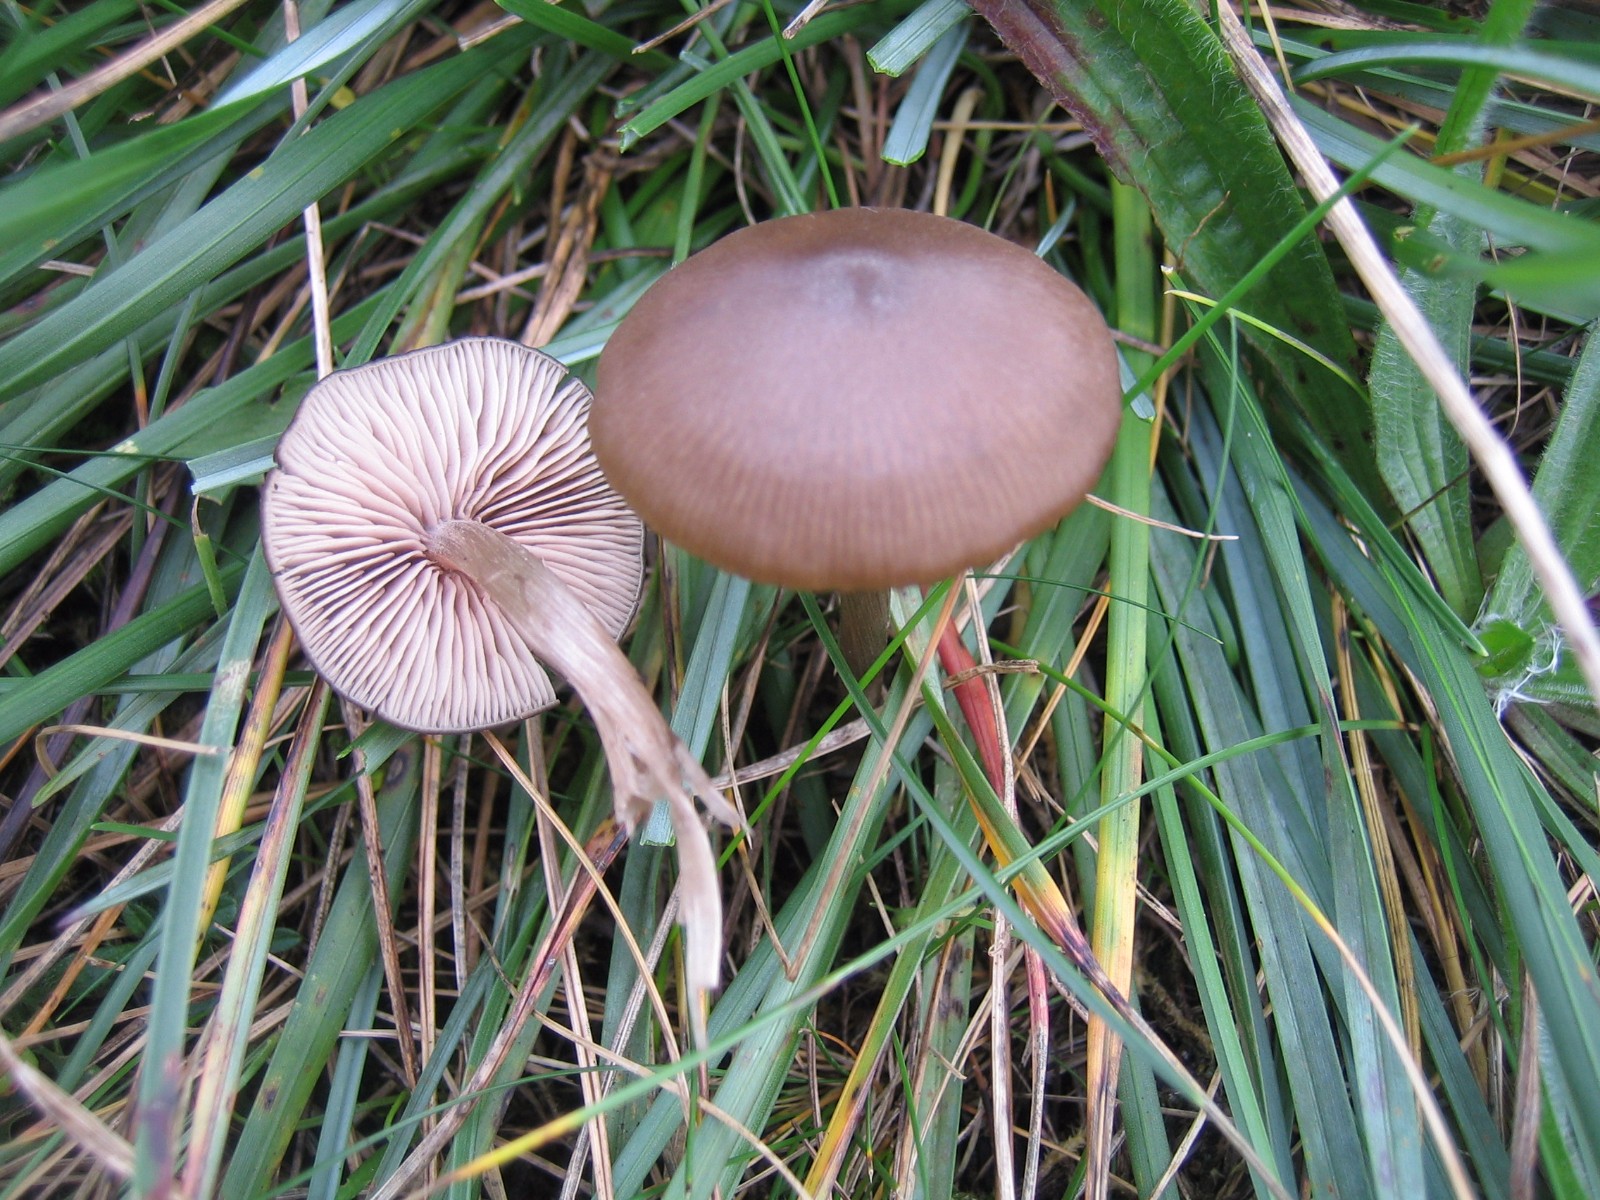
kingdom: Fungi
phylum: Basidiomycota
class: Agaricomycetes
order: Agaricales
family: Entolomataceae
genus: Entoloma
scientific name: Entoloma
